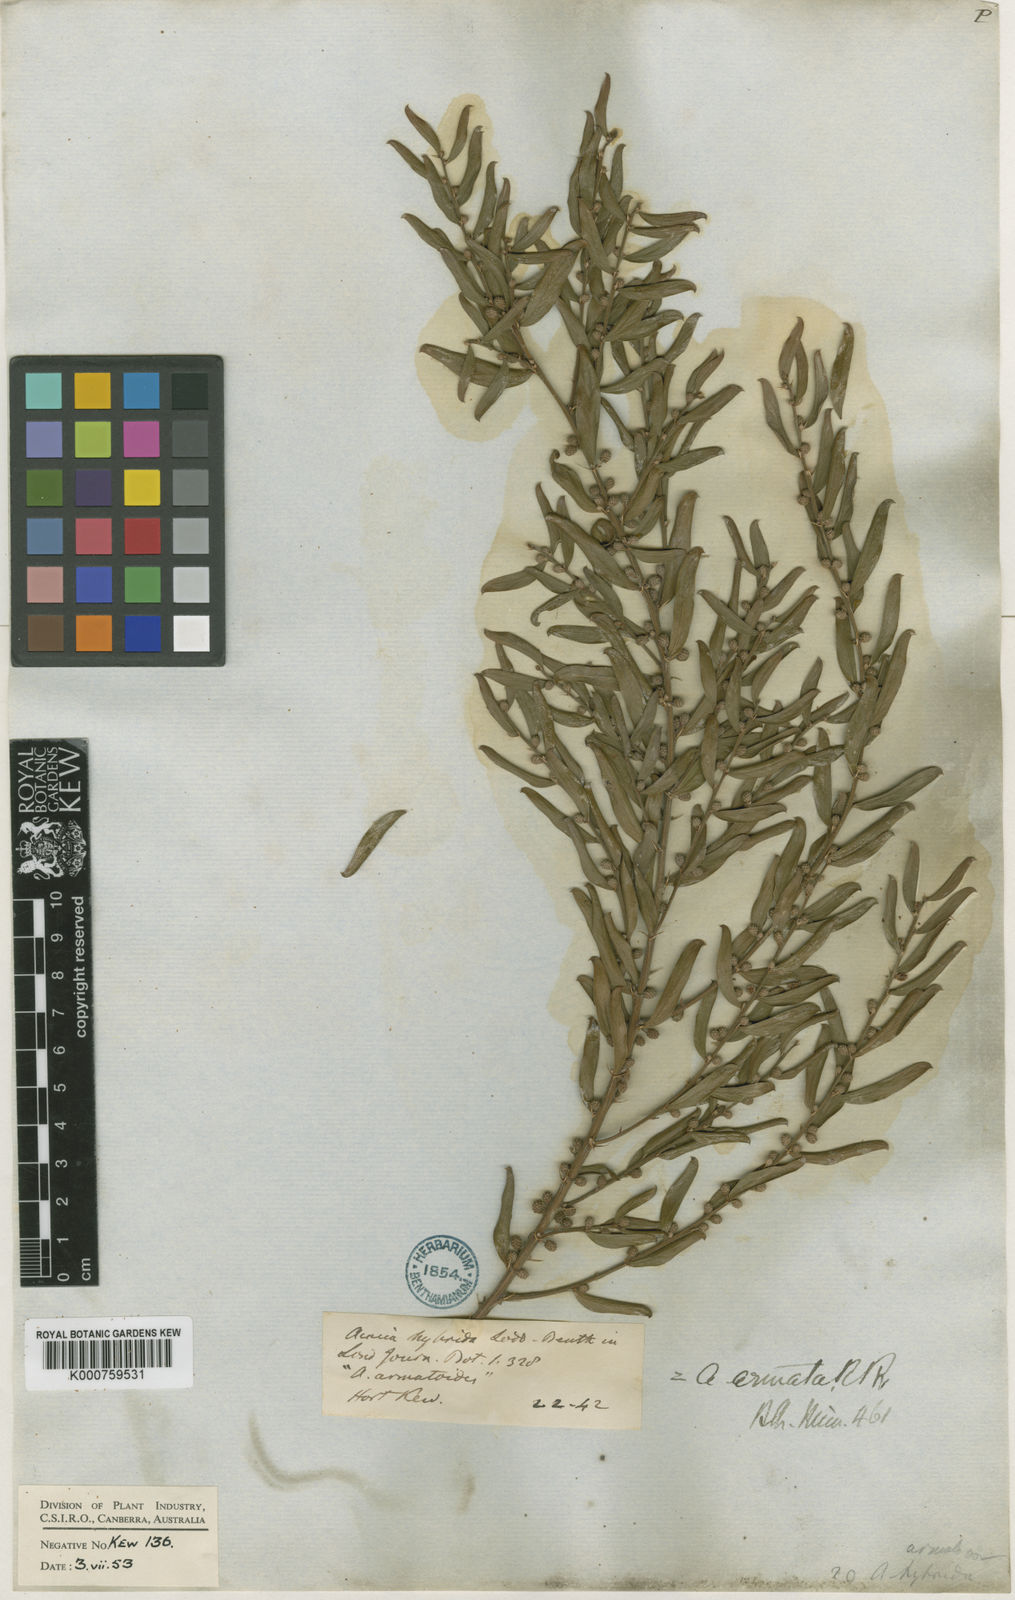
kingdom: Plantae
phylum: Tracheophyta
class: Magnoliopsida
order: Fabales
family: Fabaceae
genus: Acacia
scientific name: Acacia paradoxa
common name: Paradox acacia
